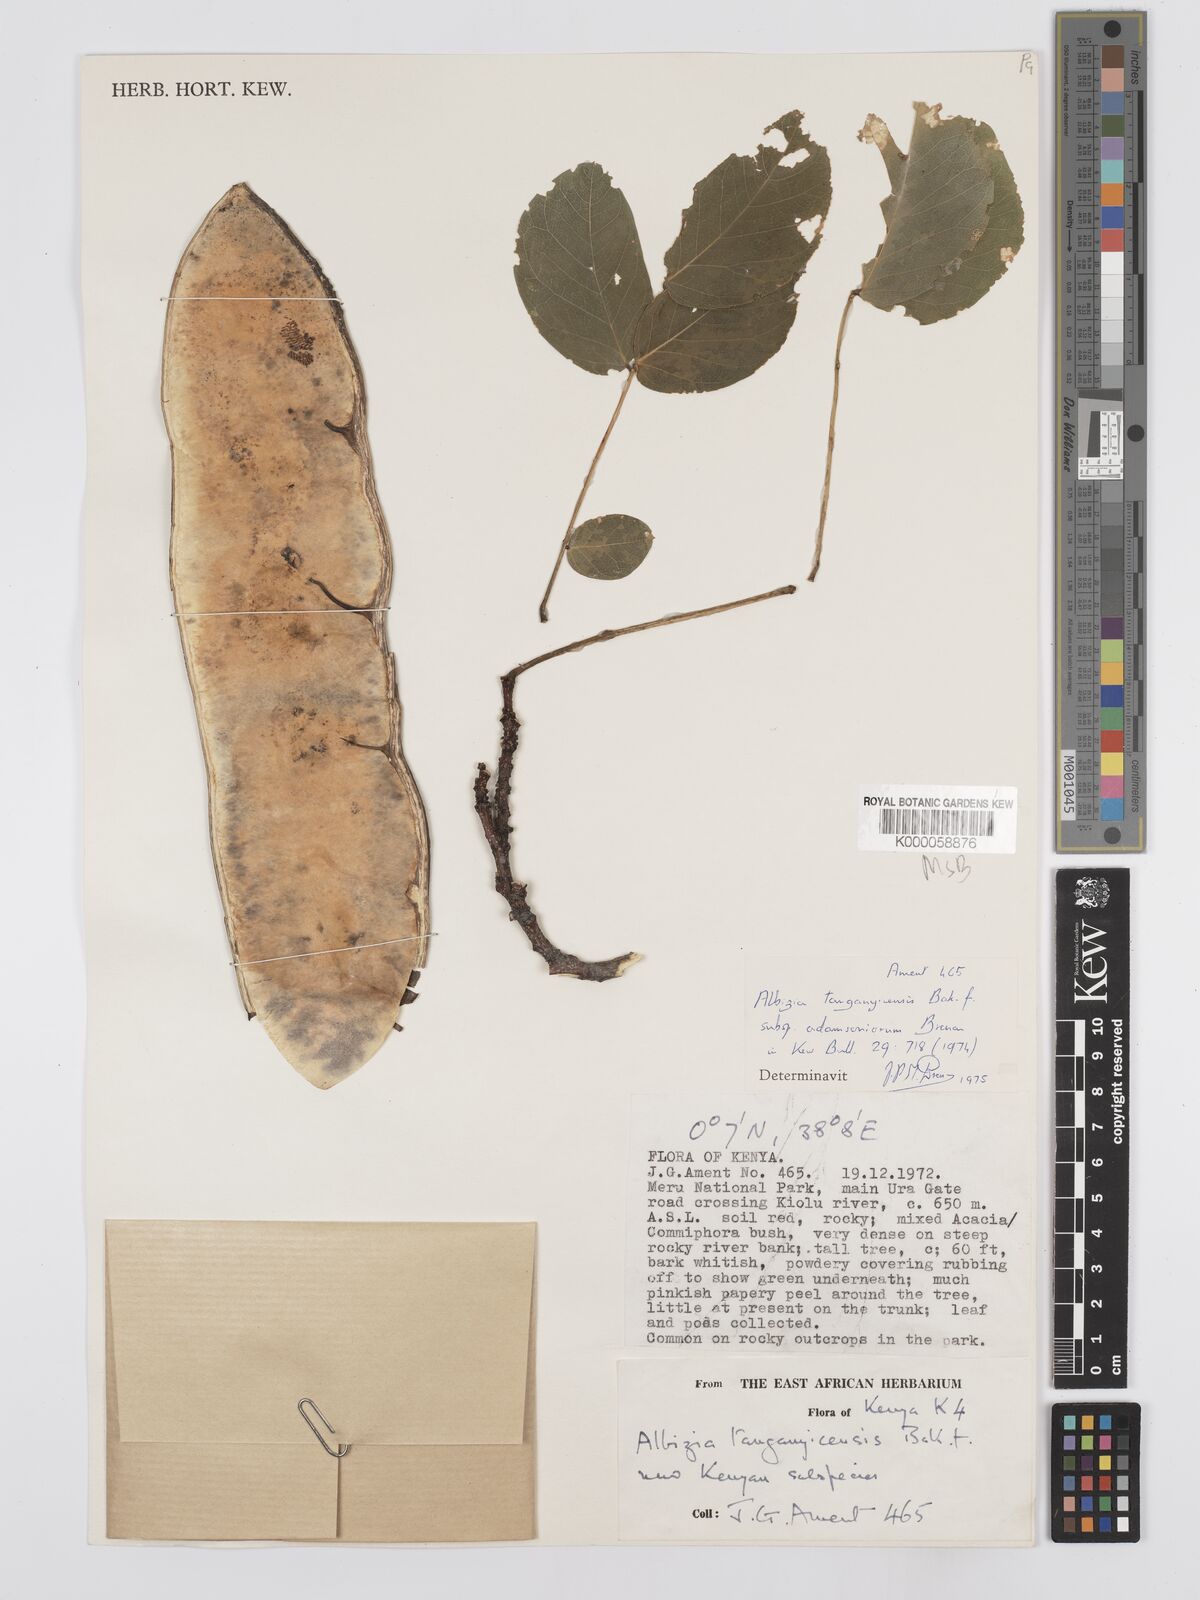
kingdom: Plantae
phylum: Tracheophyta
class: Magnoliopsida
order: Fabales
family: Fabaceae
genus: Albizia
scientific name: Albizia
